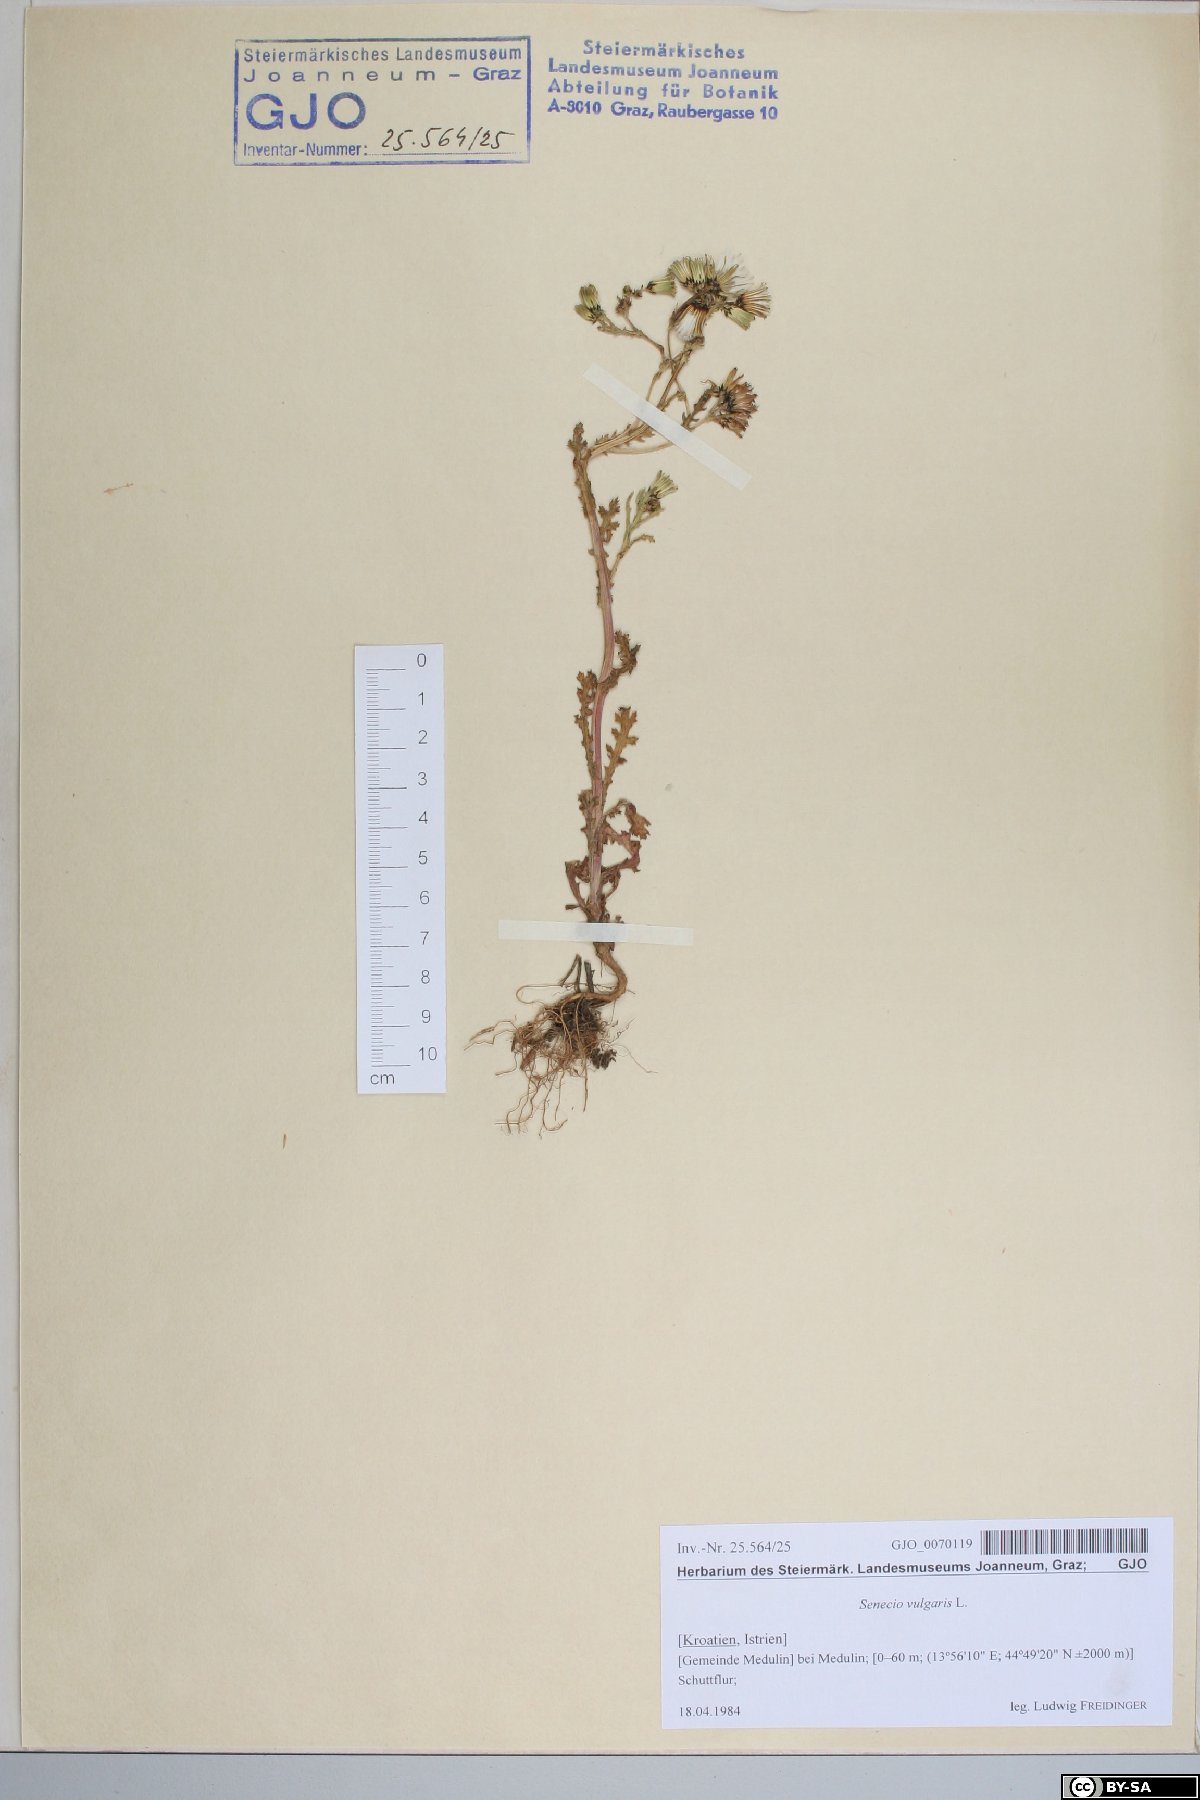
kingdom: Plantae
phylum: Tracheophyta
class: Magnoliopsida
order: Asterales
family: Asteraceae
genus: Senecio
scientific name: Senecio vulgaris
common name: Old-man-in-the-spring
